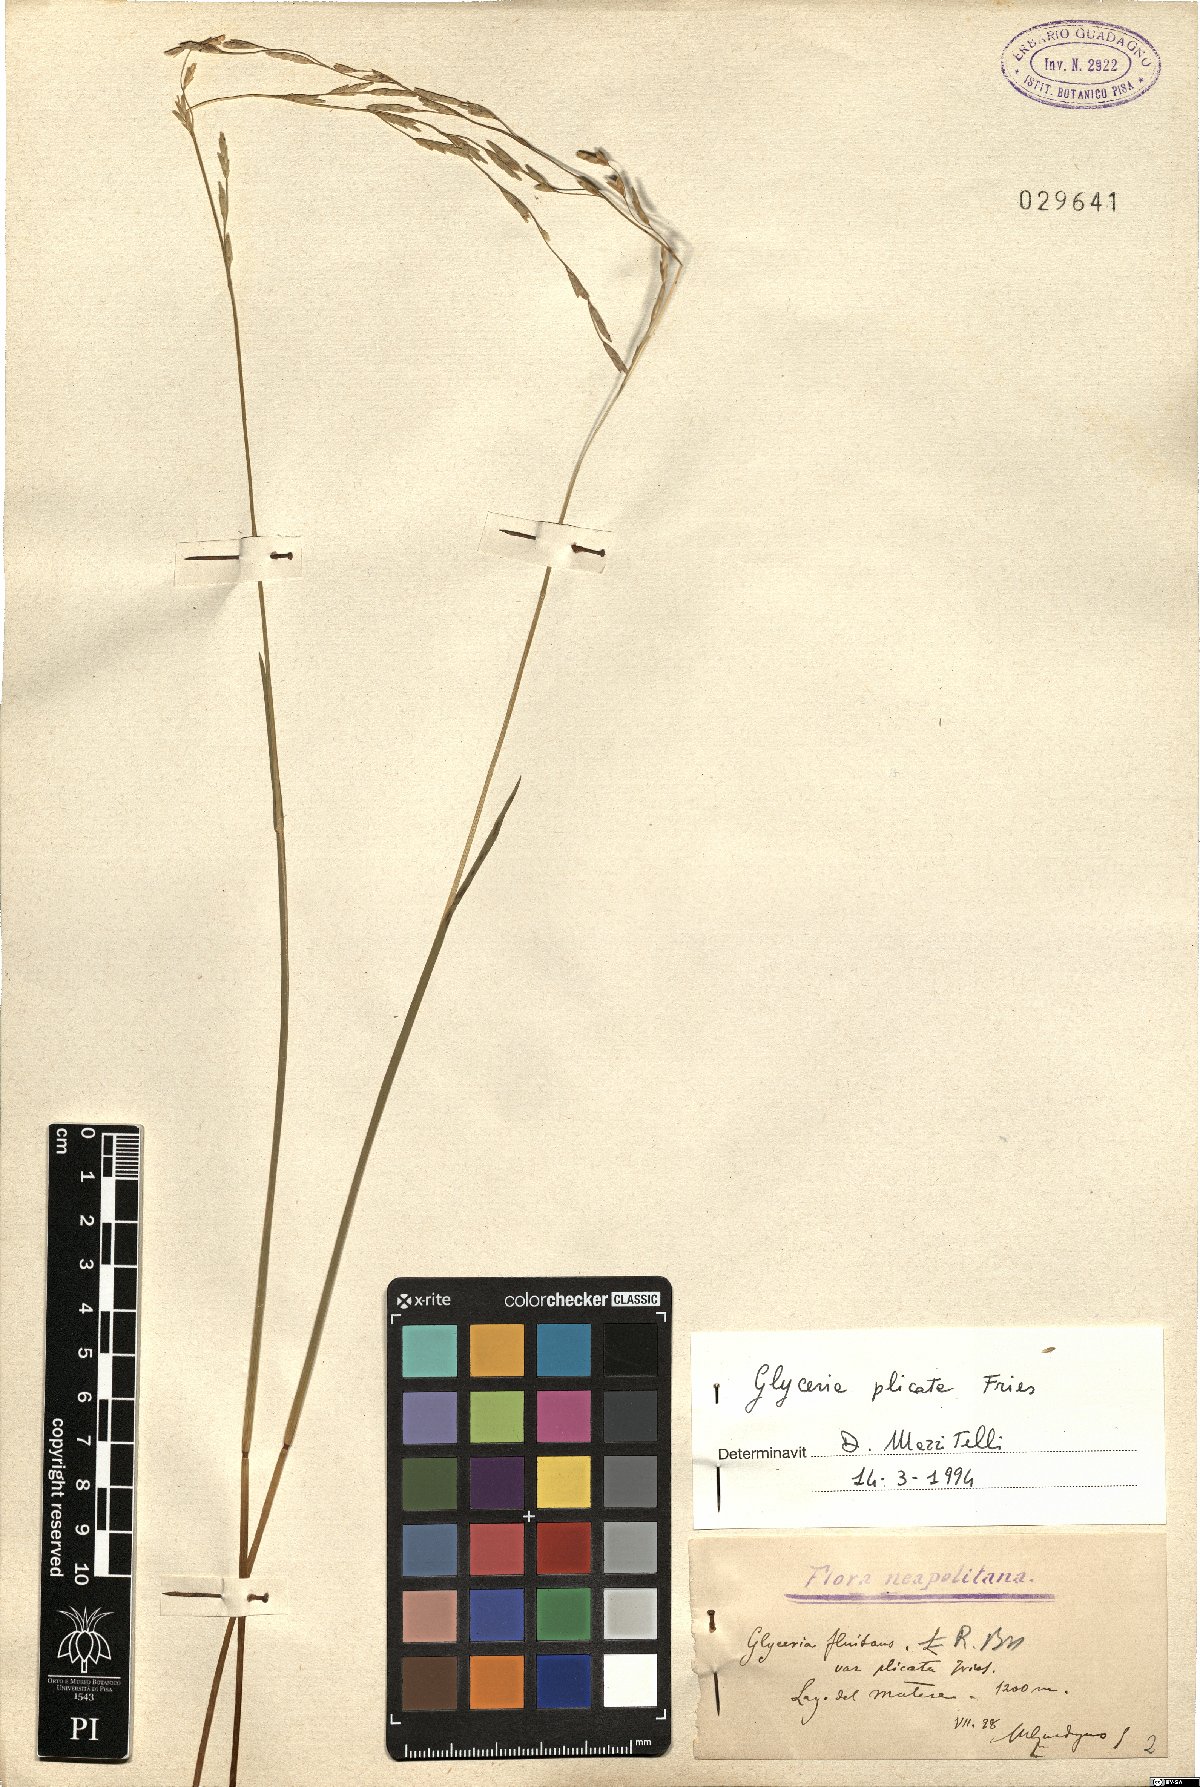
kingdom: Plantae
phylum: Tracheophyta
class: Liliopsida
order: Poales
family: Poaceae
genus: Glyceria
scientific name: Glyceria notata
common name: Plicate sweet-grass
